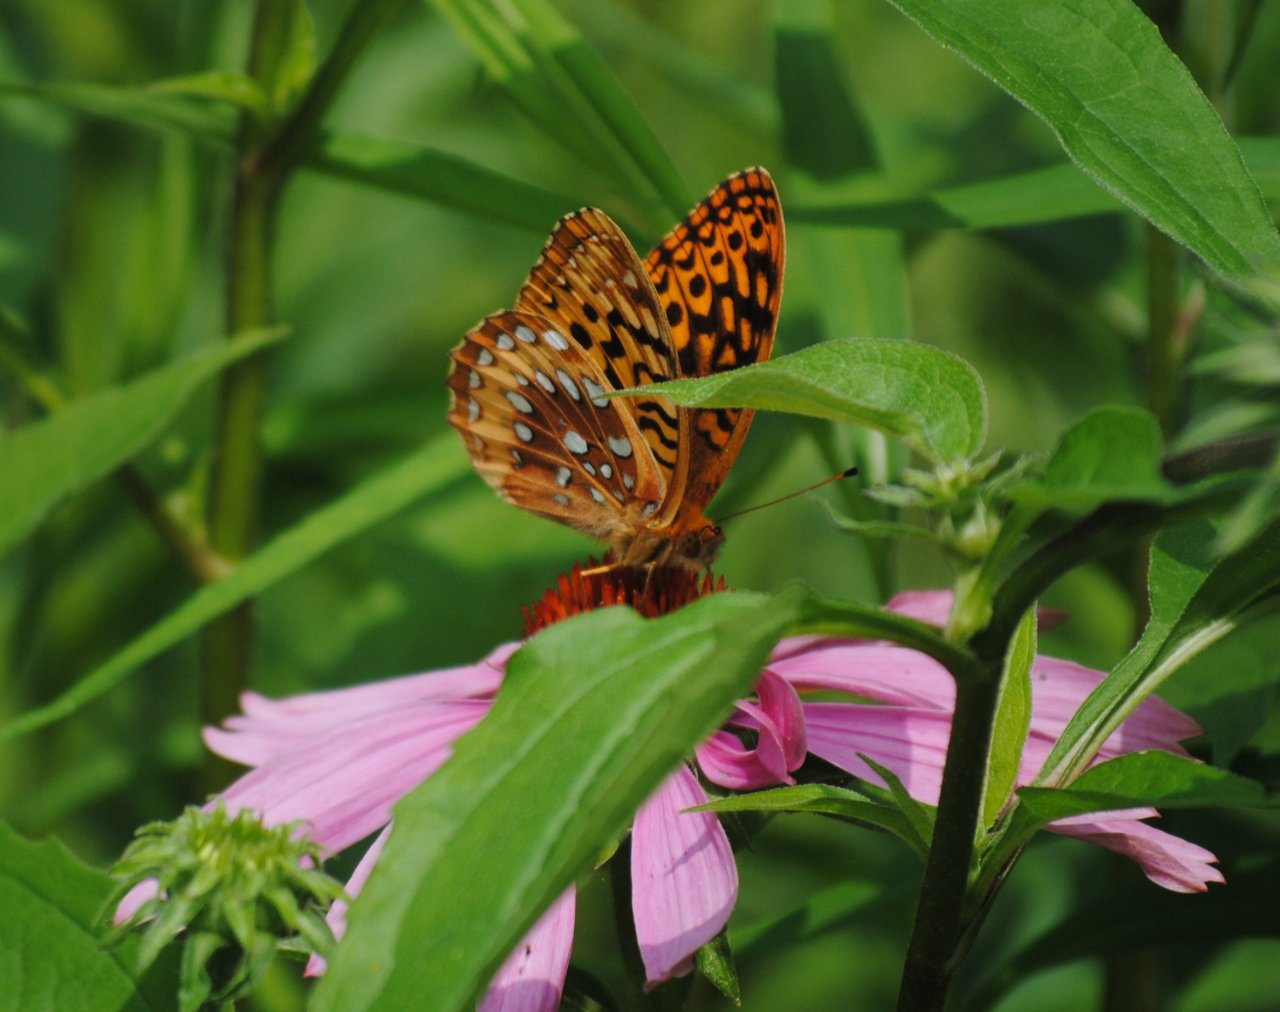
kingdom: Animalia
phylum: Arthropoda
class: Insecta
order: Lepidoptera
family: Nymphalidae
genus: Speyeria
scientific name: Speyeria cybele
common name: Great Spangled Fritillary
